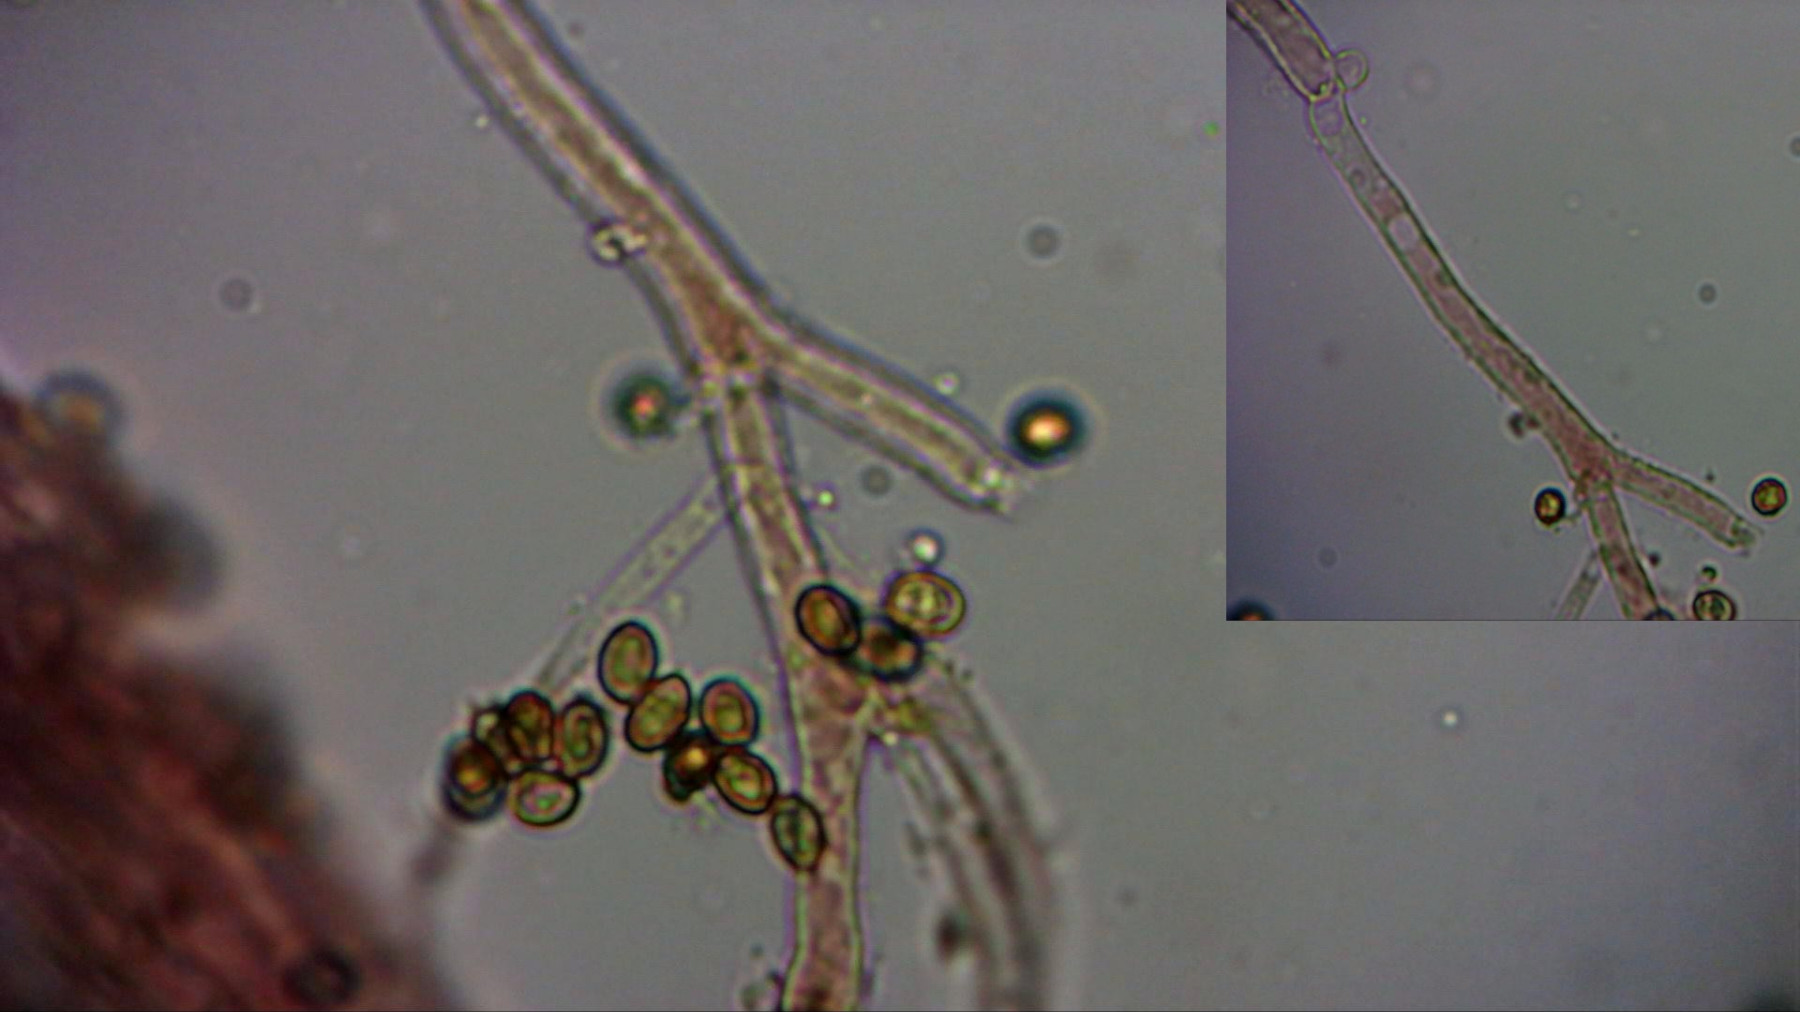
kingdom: Fungi
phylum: Basidiomycota
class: Agaricomycetes
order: Agaricales
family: Cortinariaceae
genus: Cortinarius
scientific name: Cortinarius
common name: cinnoberbladet slørhat
